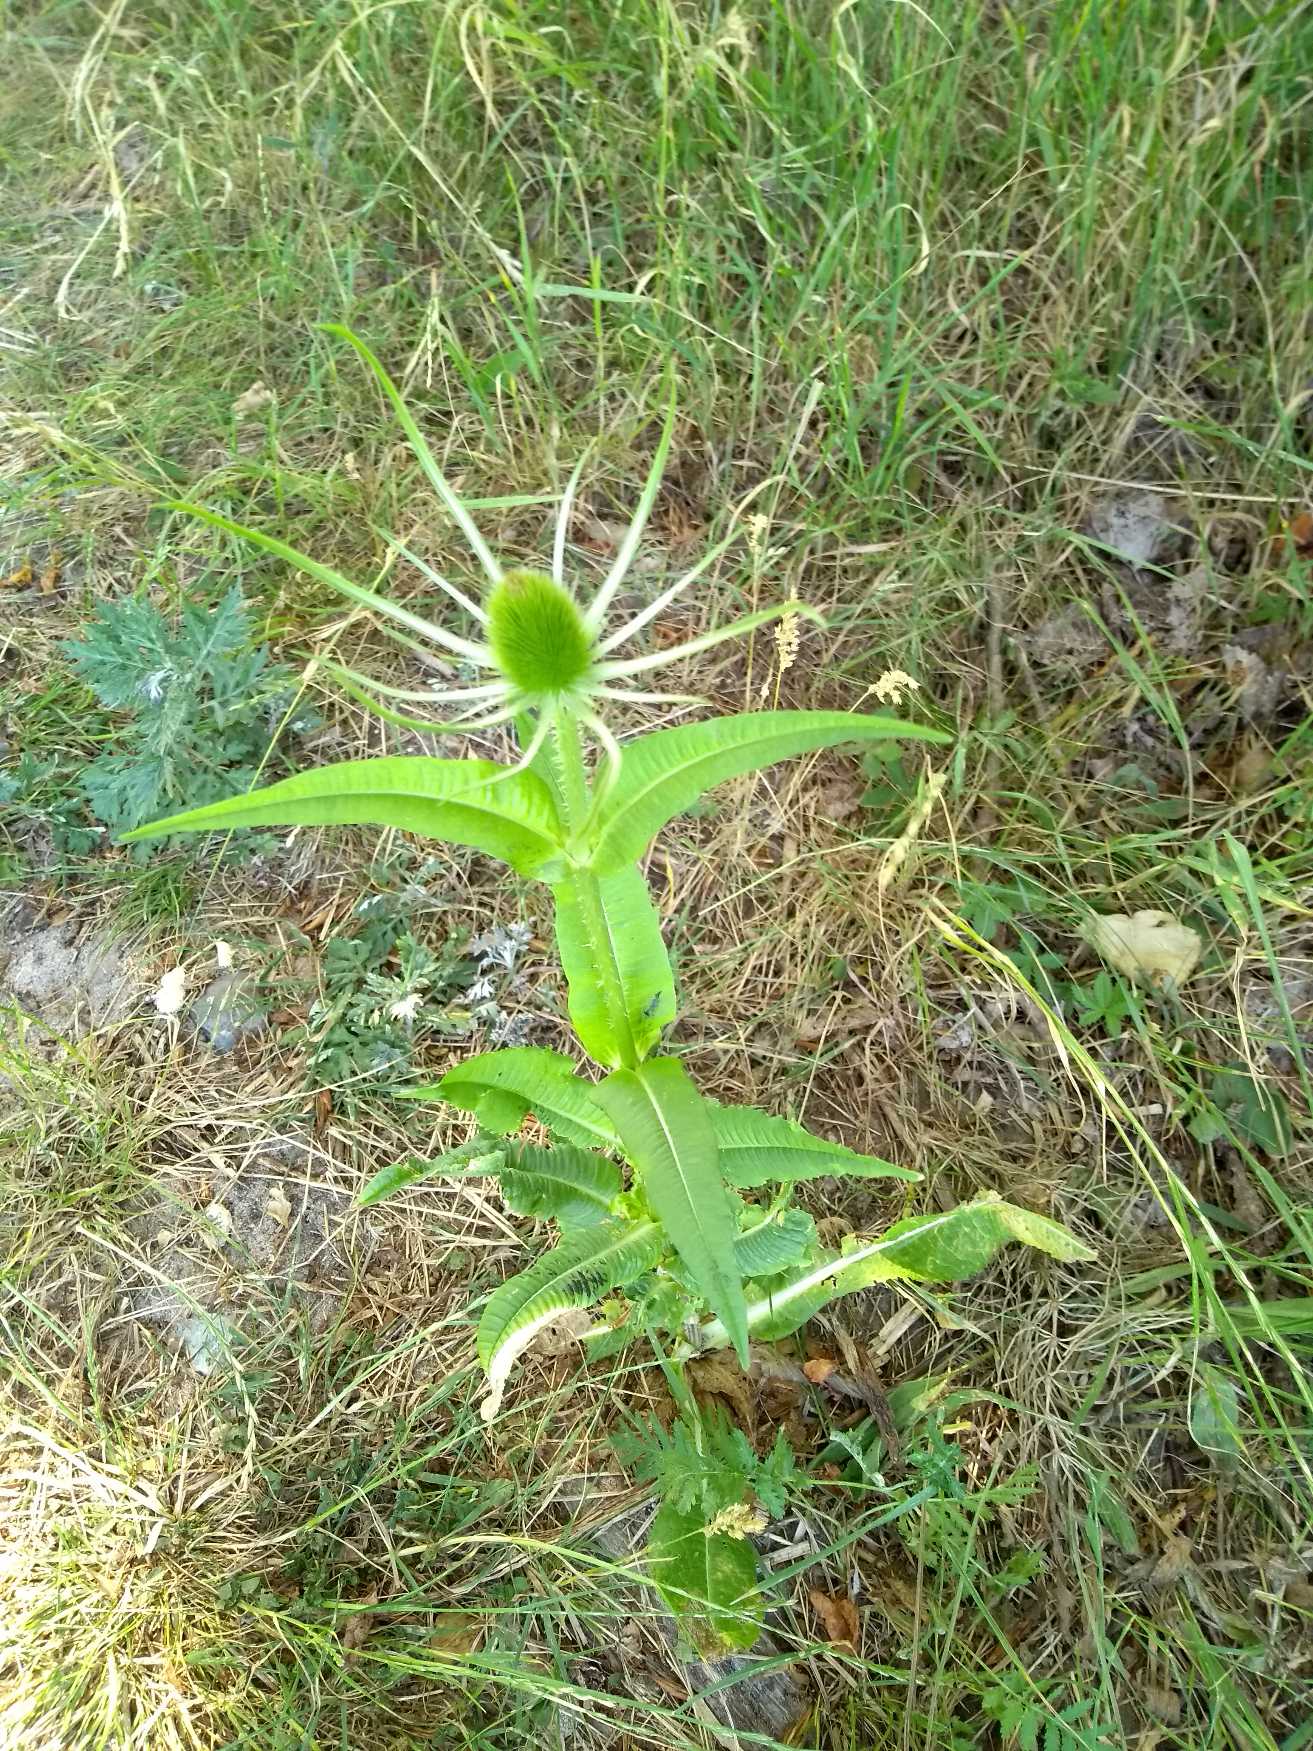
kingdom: Plantae
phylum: Tracheophyta
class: Magnoliopsida
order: Dipsacales
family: Caprifoliaceae
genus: Dipsacus
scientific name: Dipsacus fullonum
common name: Gærde-kartebolle
